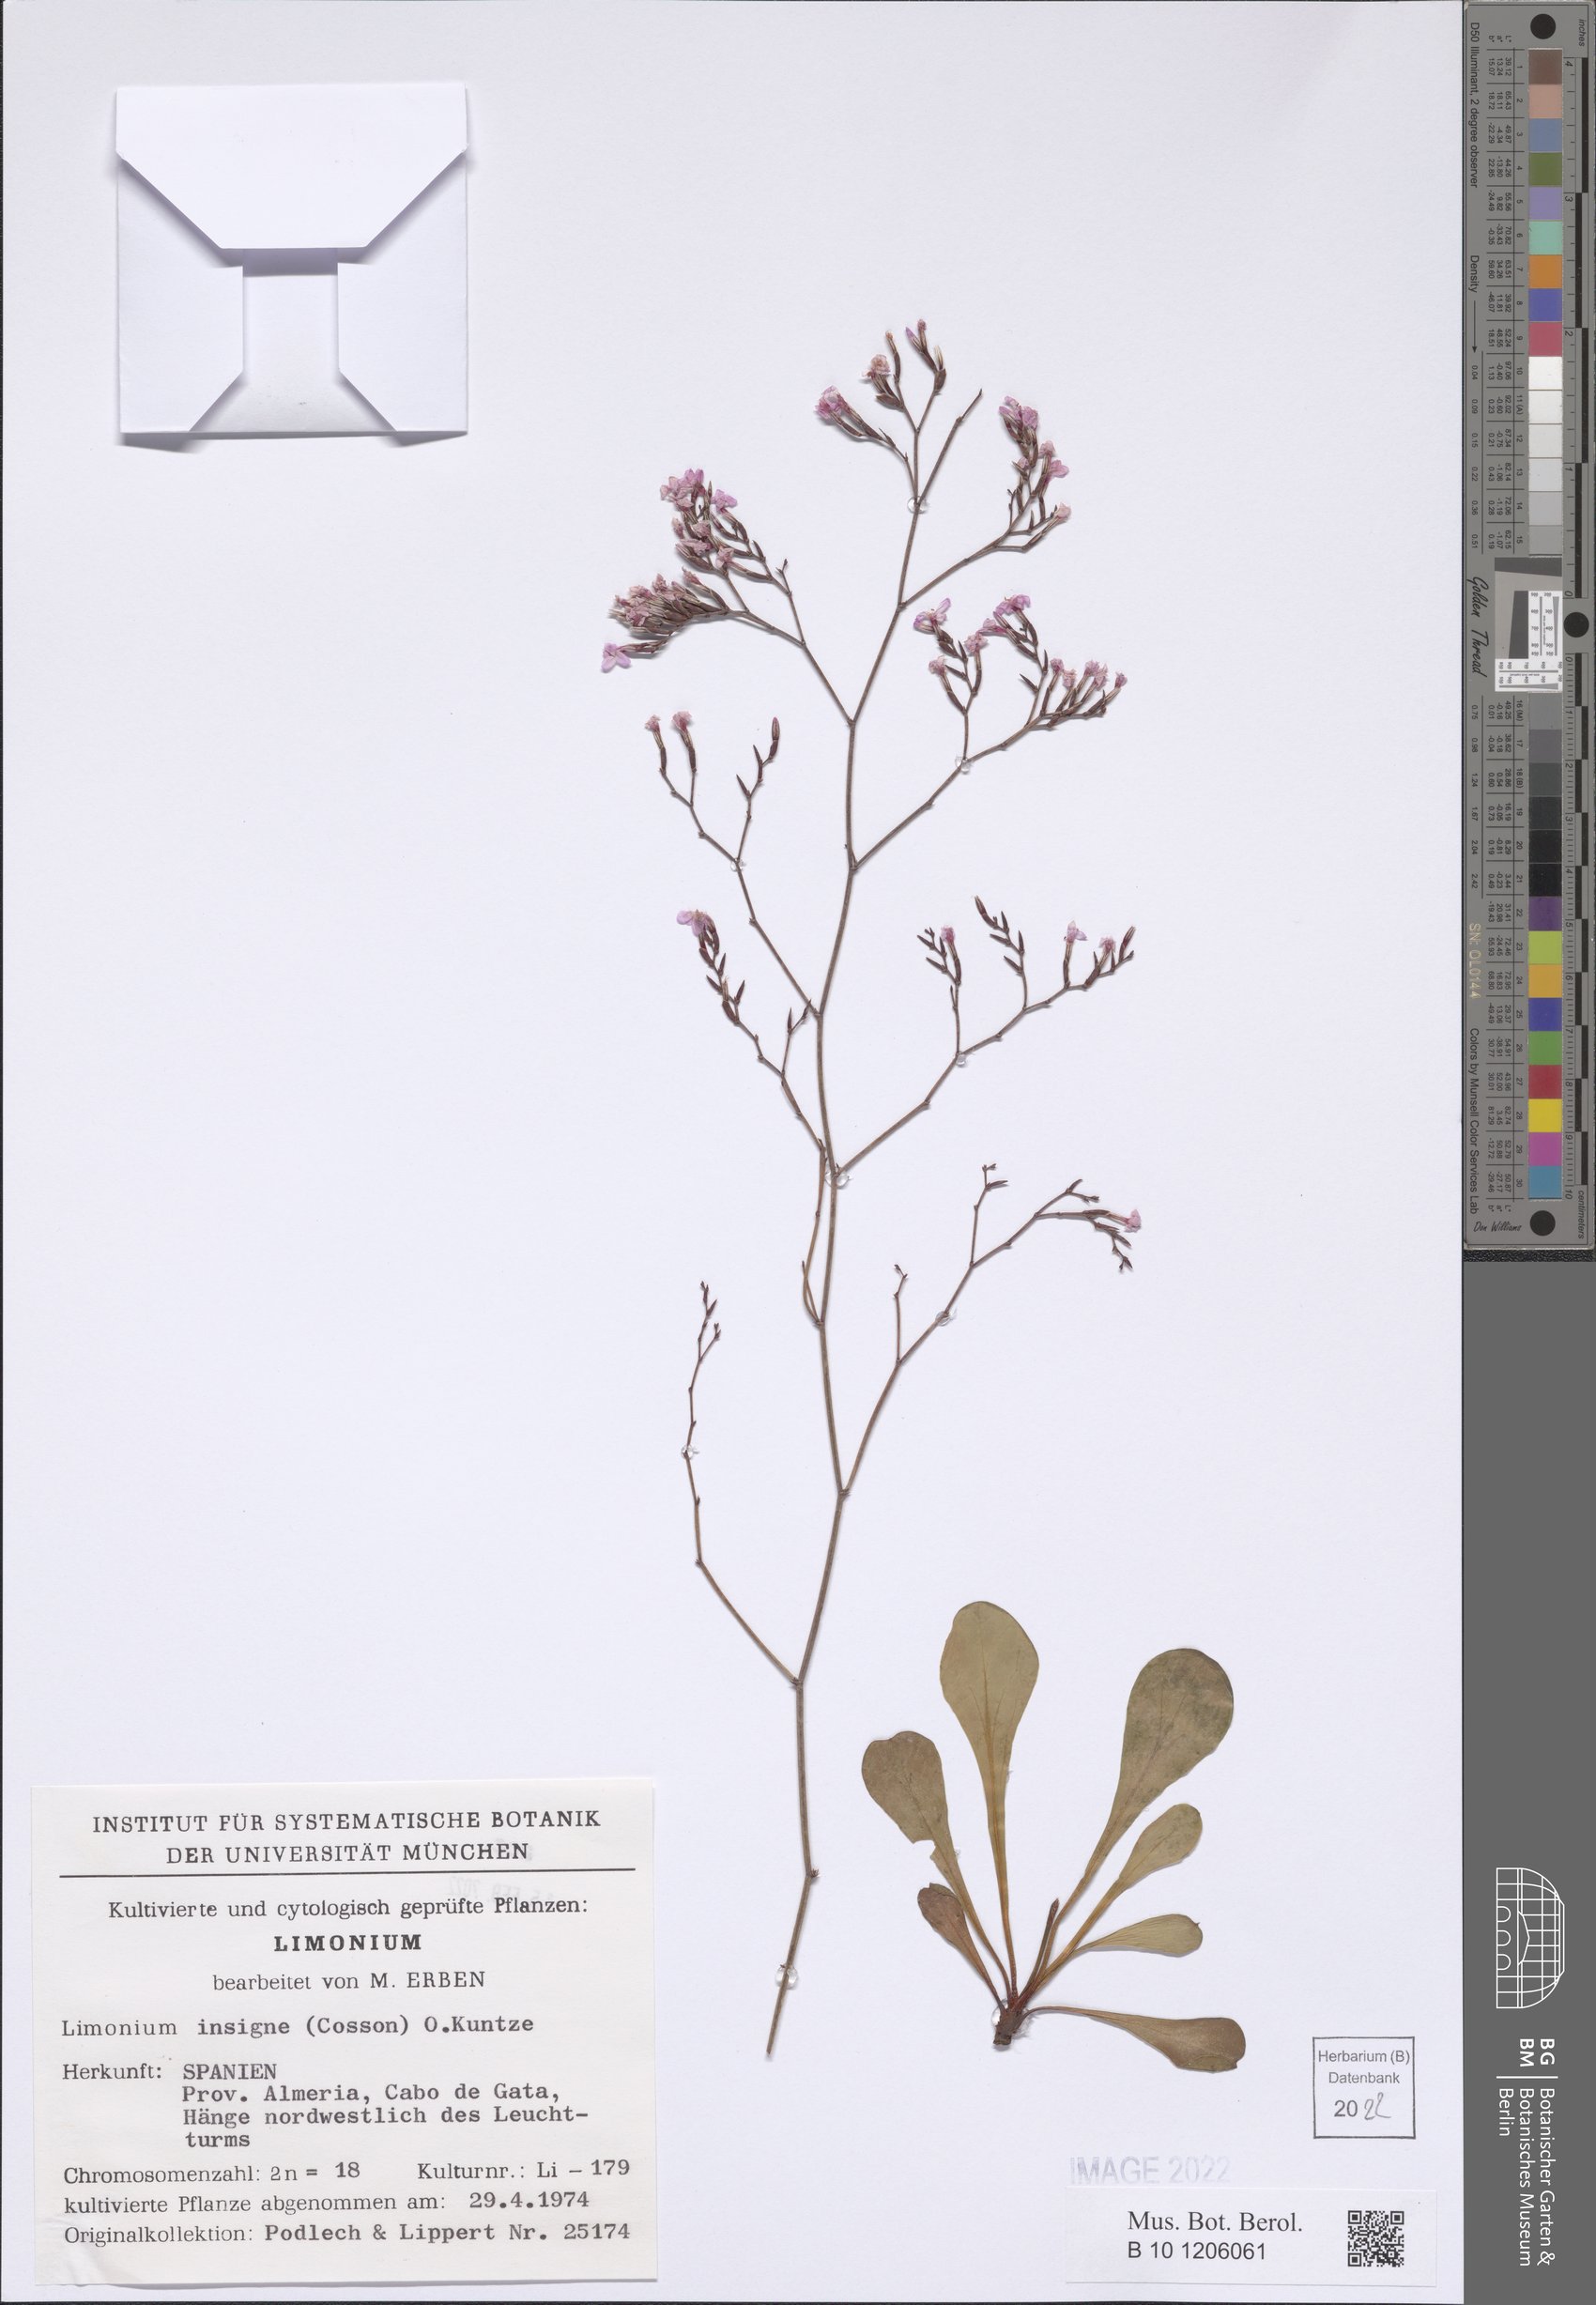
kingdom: Plantae
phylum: Tracheophyta
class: Magnoliopsida
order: Caryophyllales
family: Plumbaginaceae
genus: Limonium
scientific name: Limonium insigne
